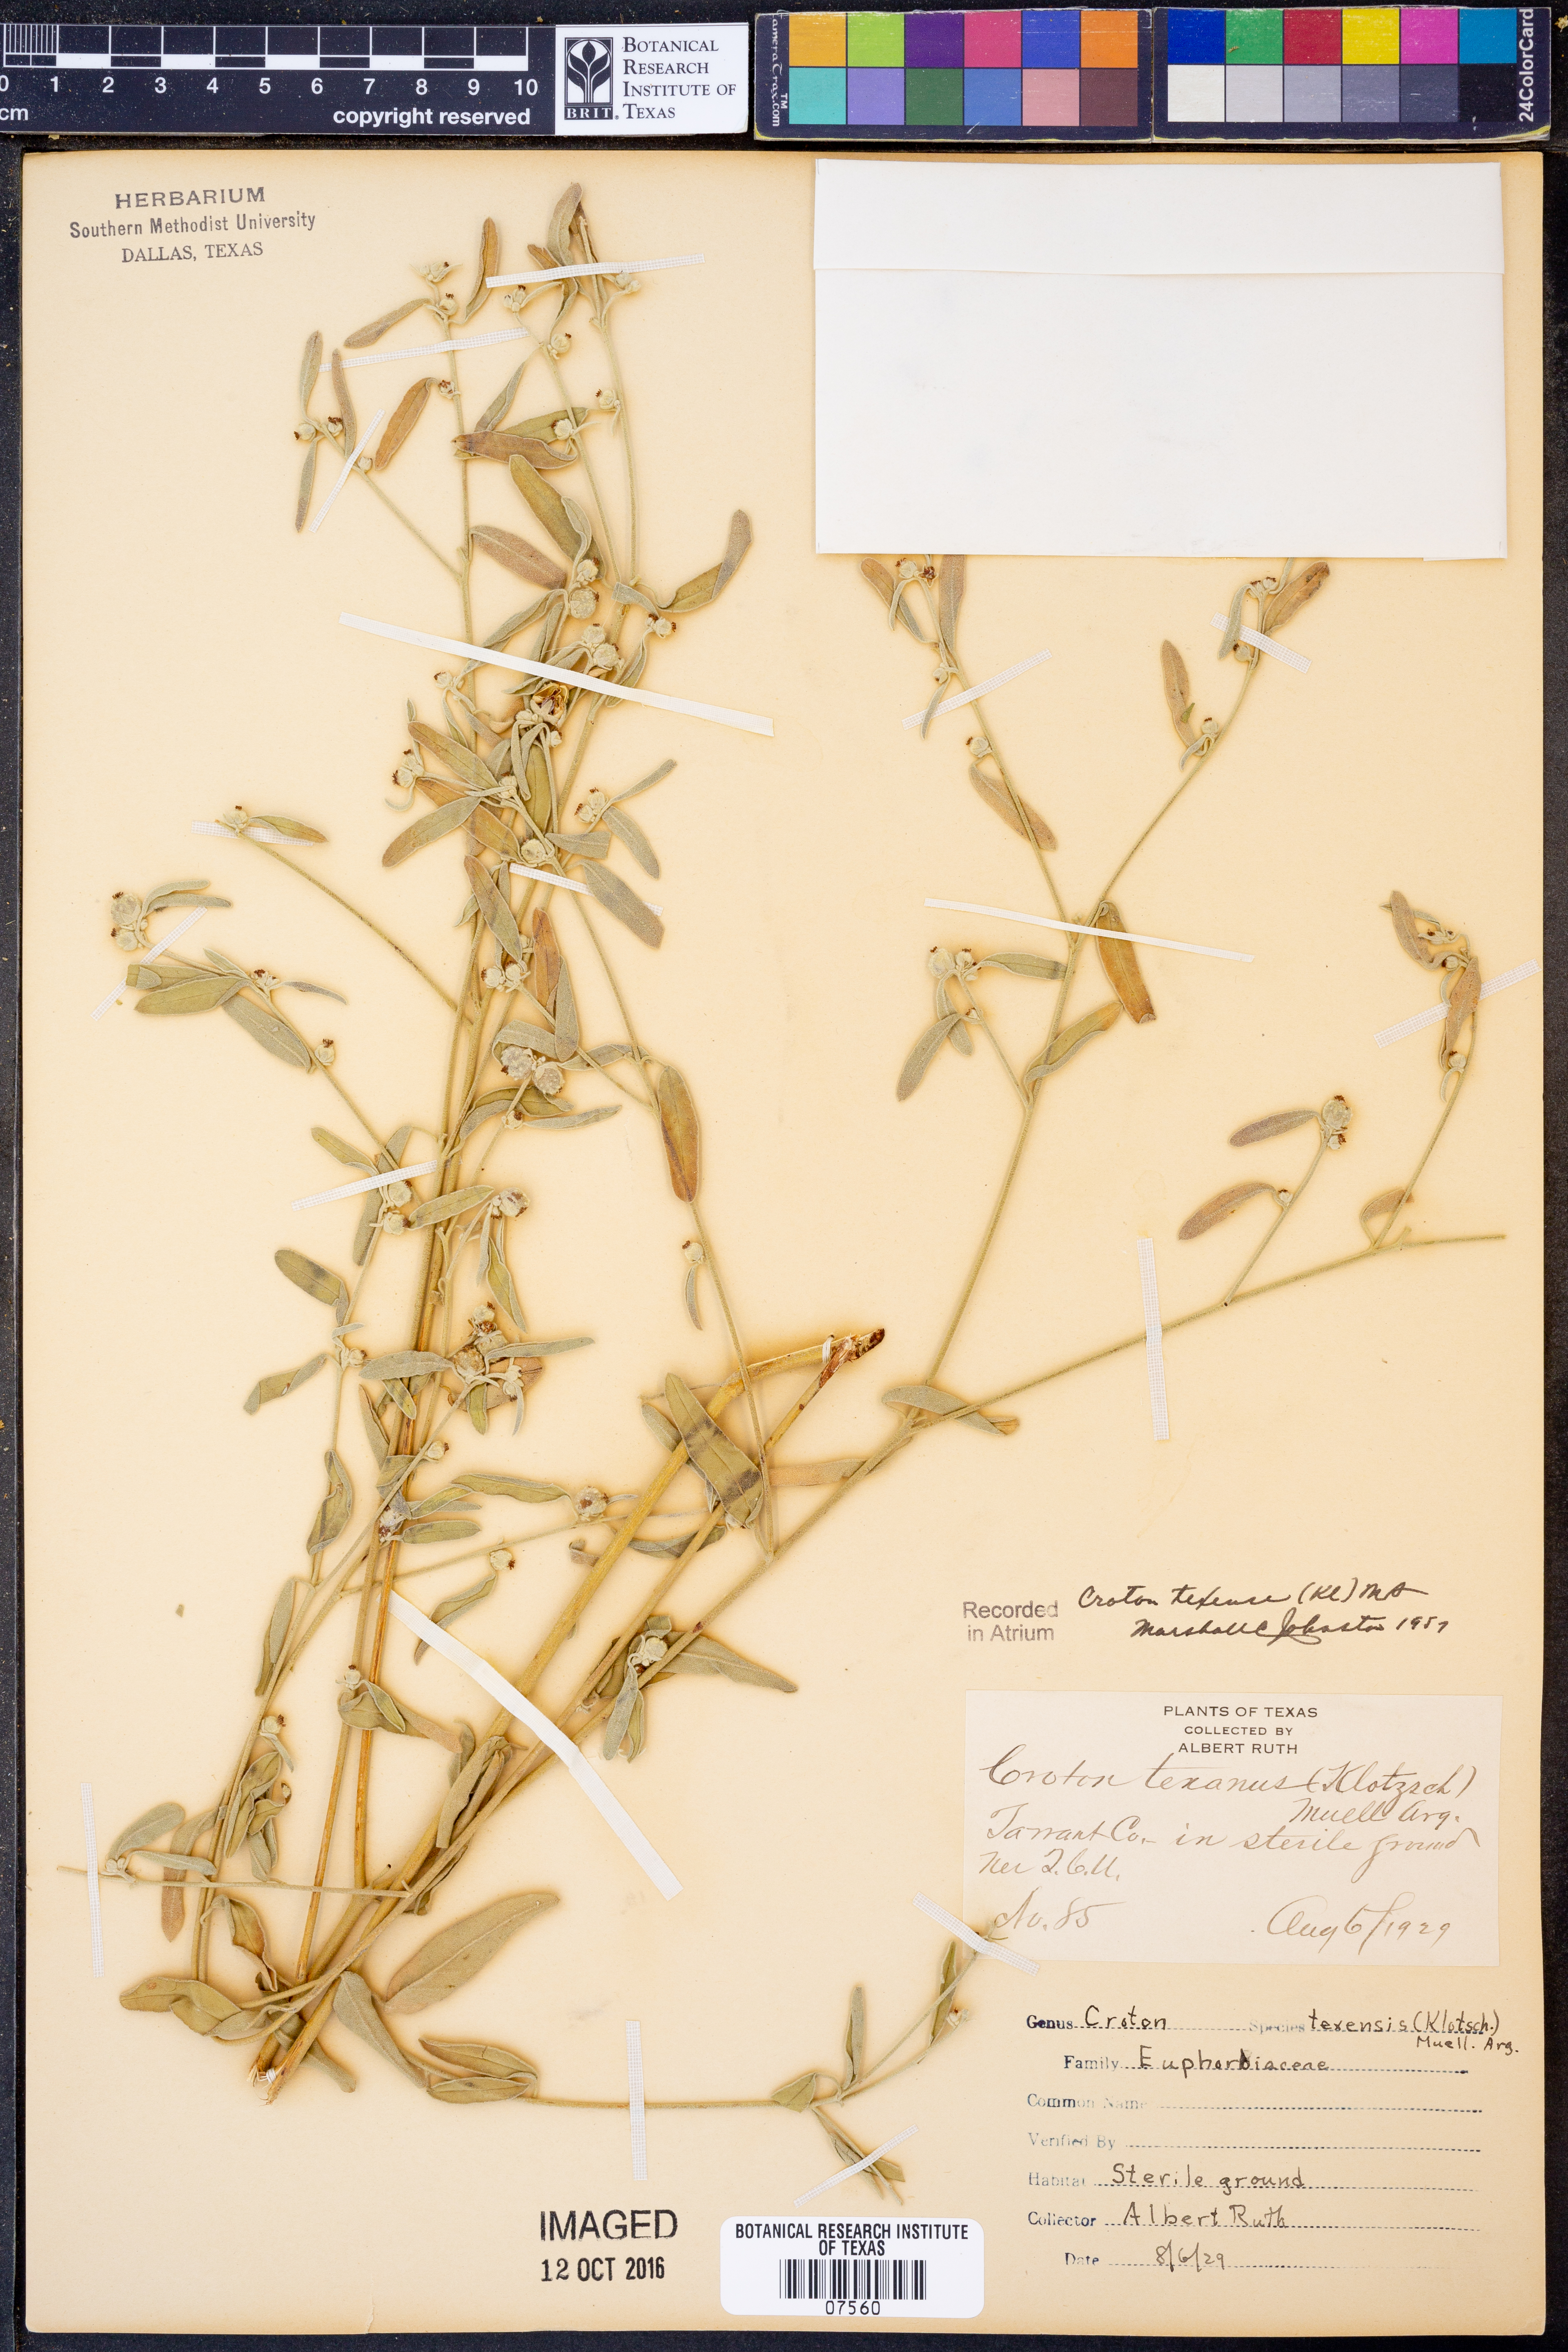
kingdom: Plantae
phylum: Tracheophyta
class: Magnoliopsida
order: Malpighiales
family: Euphorbiaceae
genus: Croton
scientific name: Croton texensis
